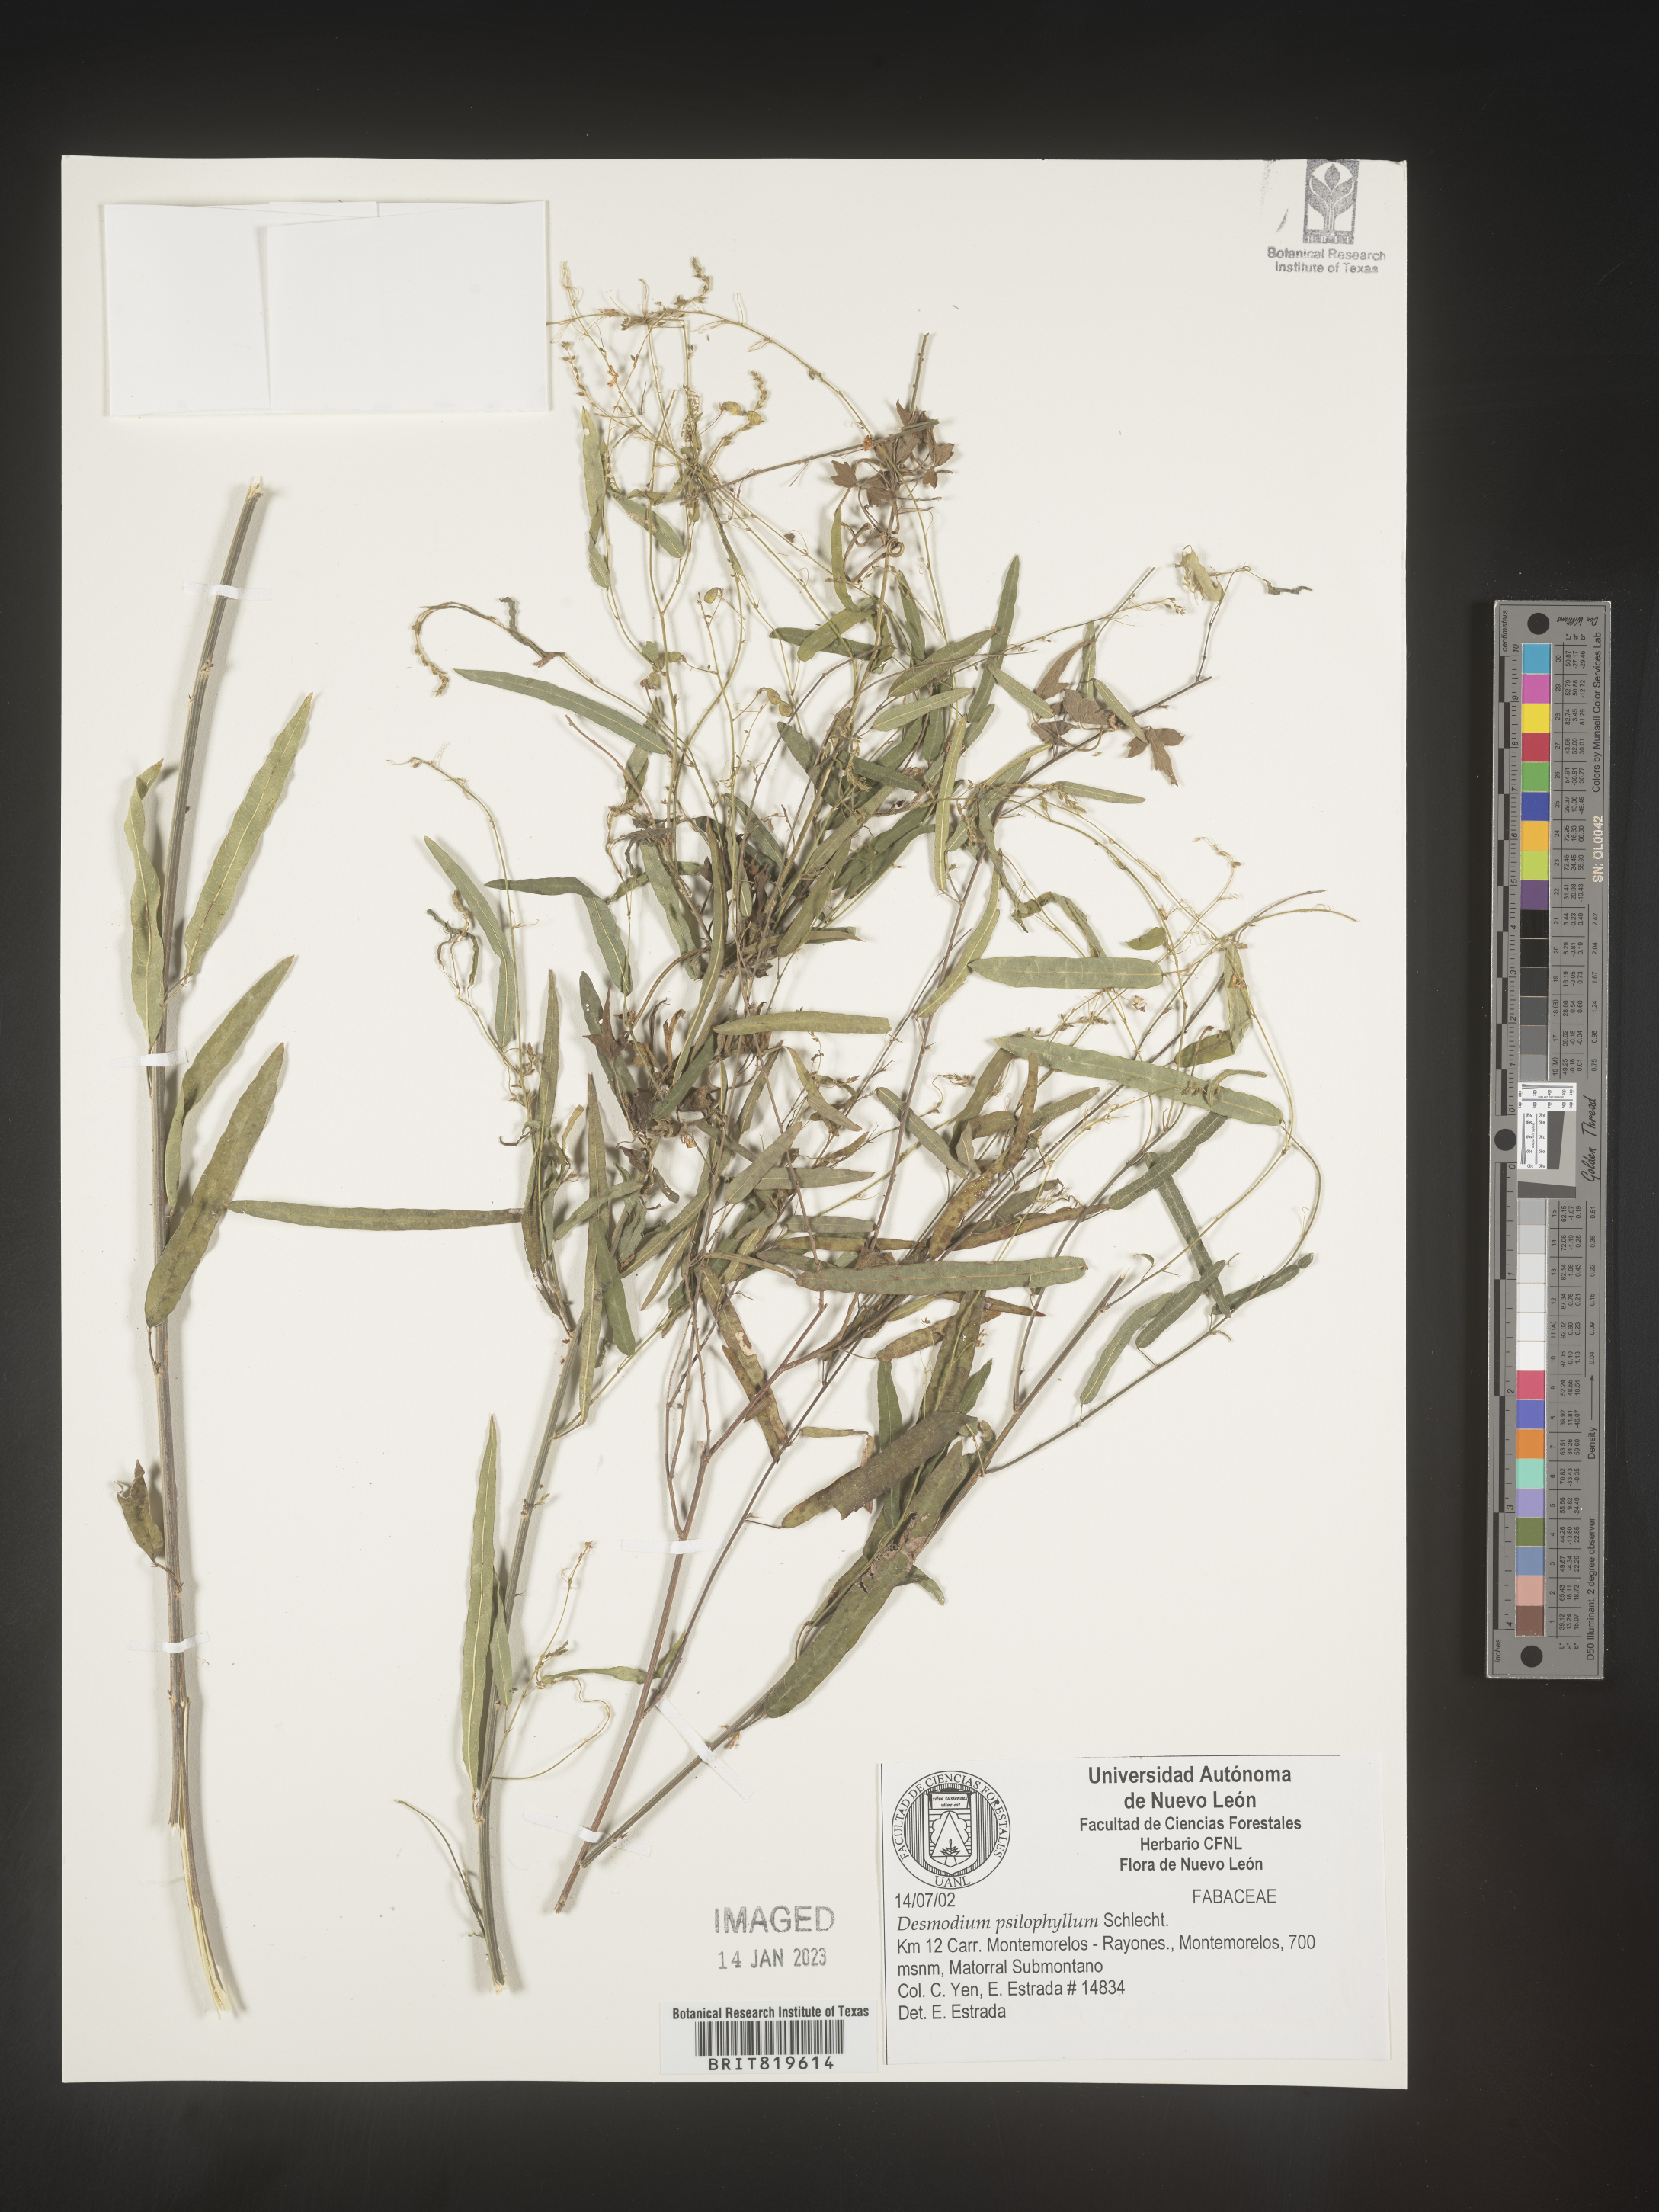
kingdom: Plantae
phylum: Tracheophyta
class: Magnoliopsida
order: Fabales
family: Fabaceae
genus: Desmodium
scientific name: Desmodium
